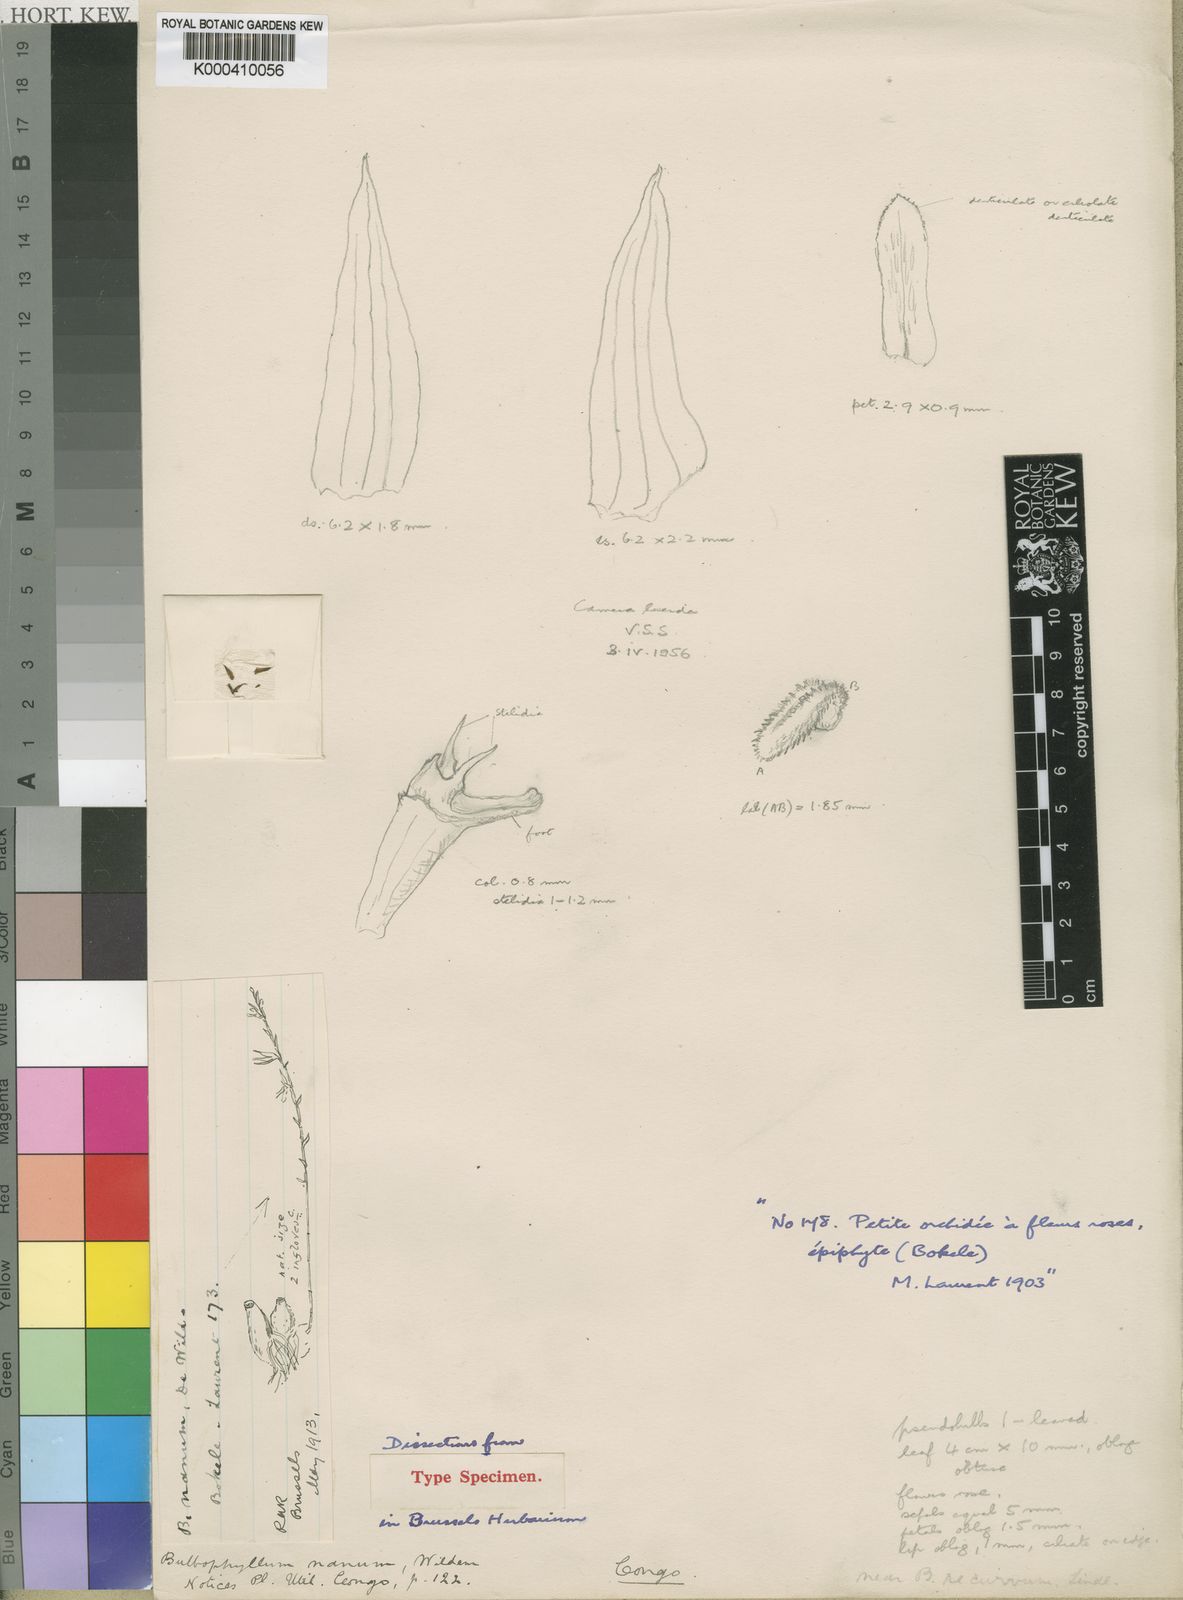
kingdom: Plantae
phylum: Tracheophyta
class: Liliopsida
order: Asparagales
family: Orchidaceae
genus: Bulbophyllum
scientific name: Bulbophyllum pumilum
